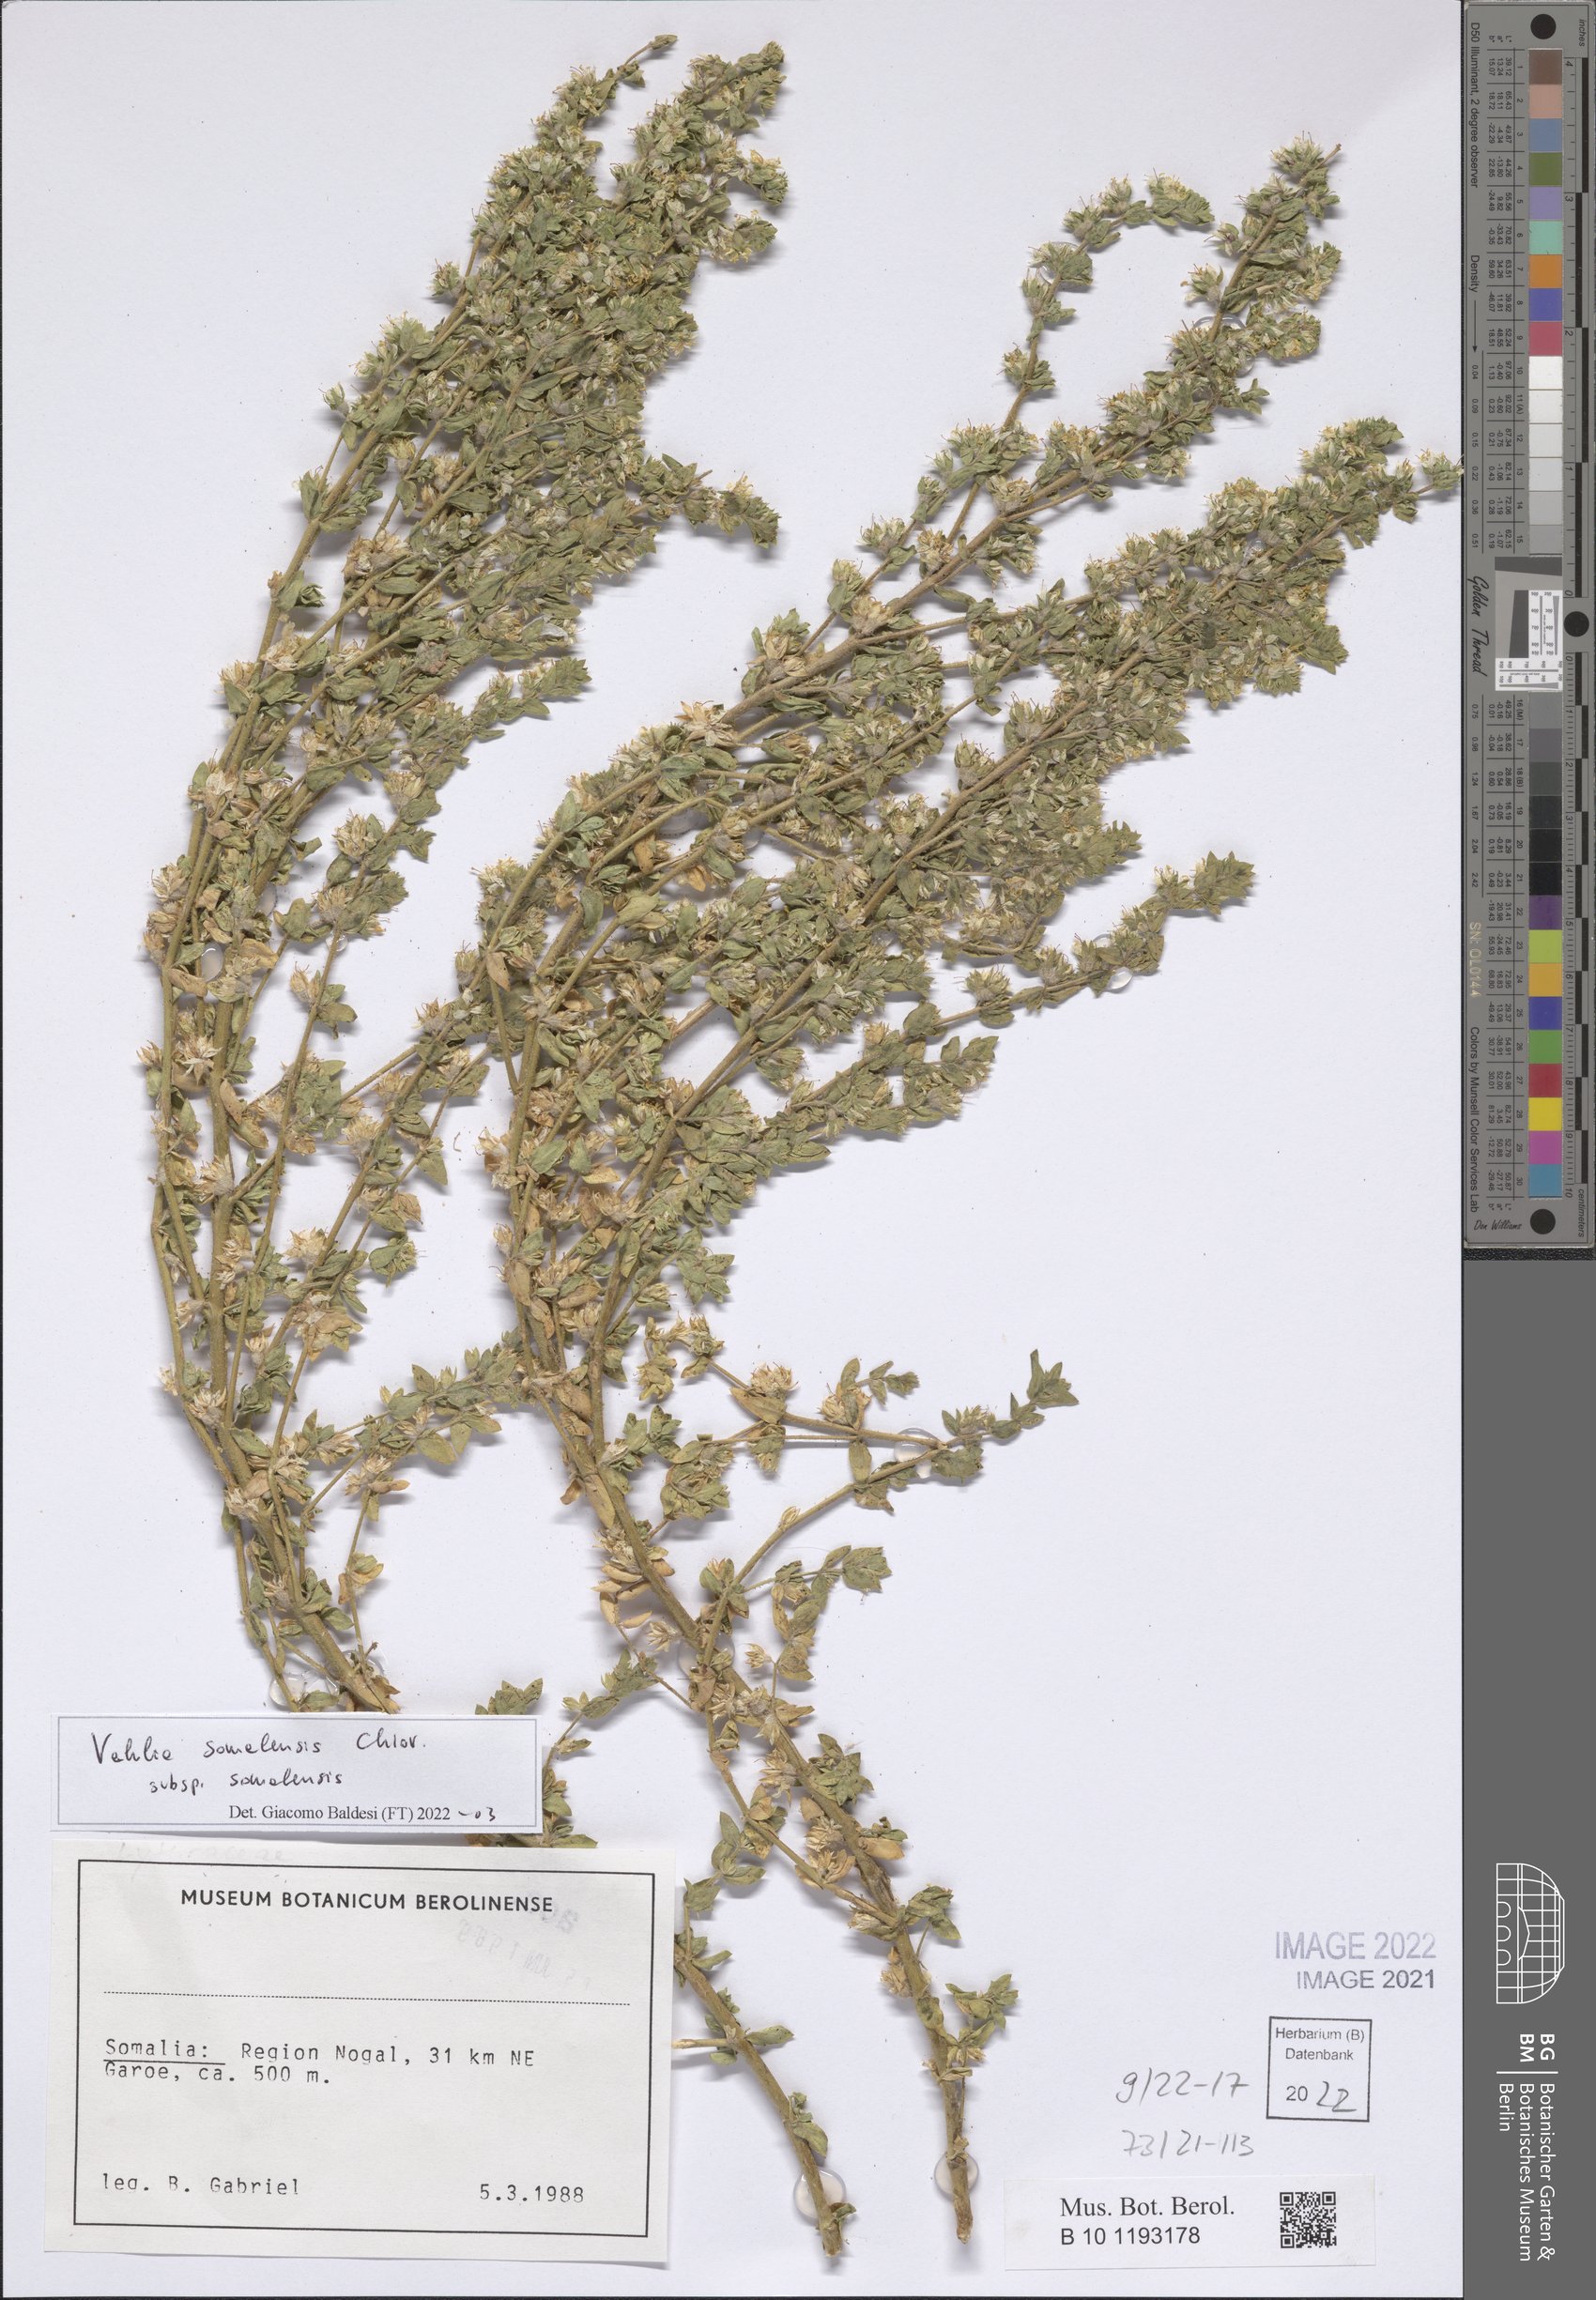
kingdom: Plantae
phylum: Tracheophyta
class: Magnoliopsida
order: Vahliales
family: Vahliaceae
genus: Vahlia
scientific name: Vahlia somalensis
